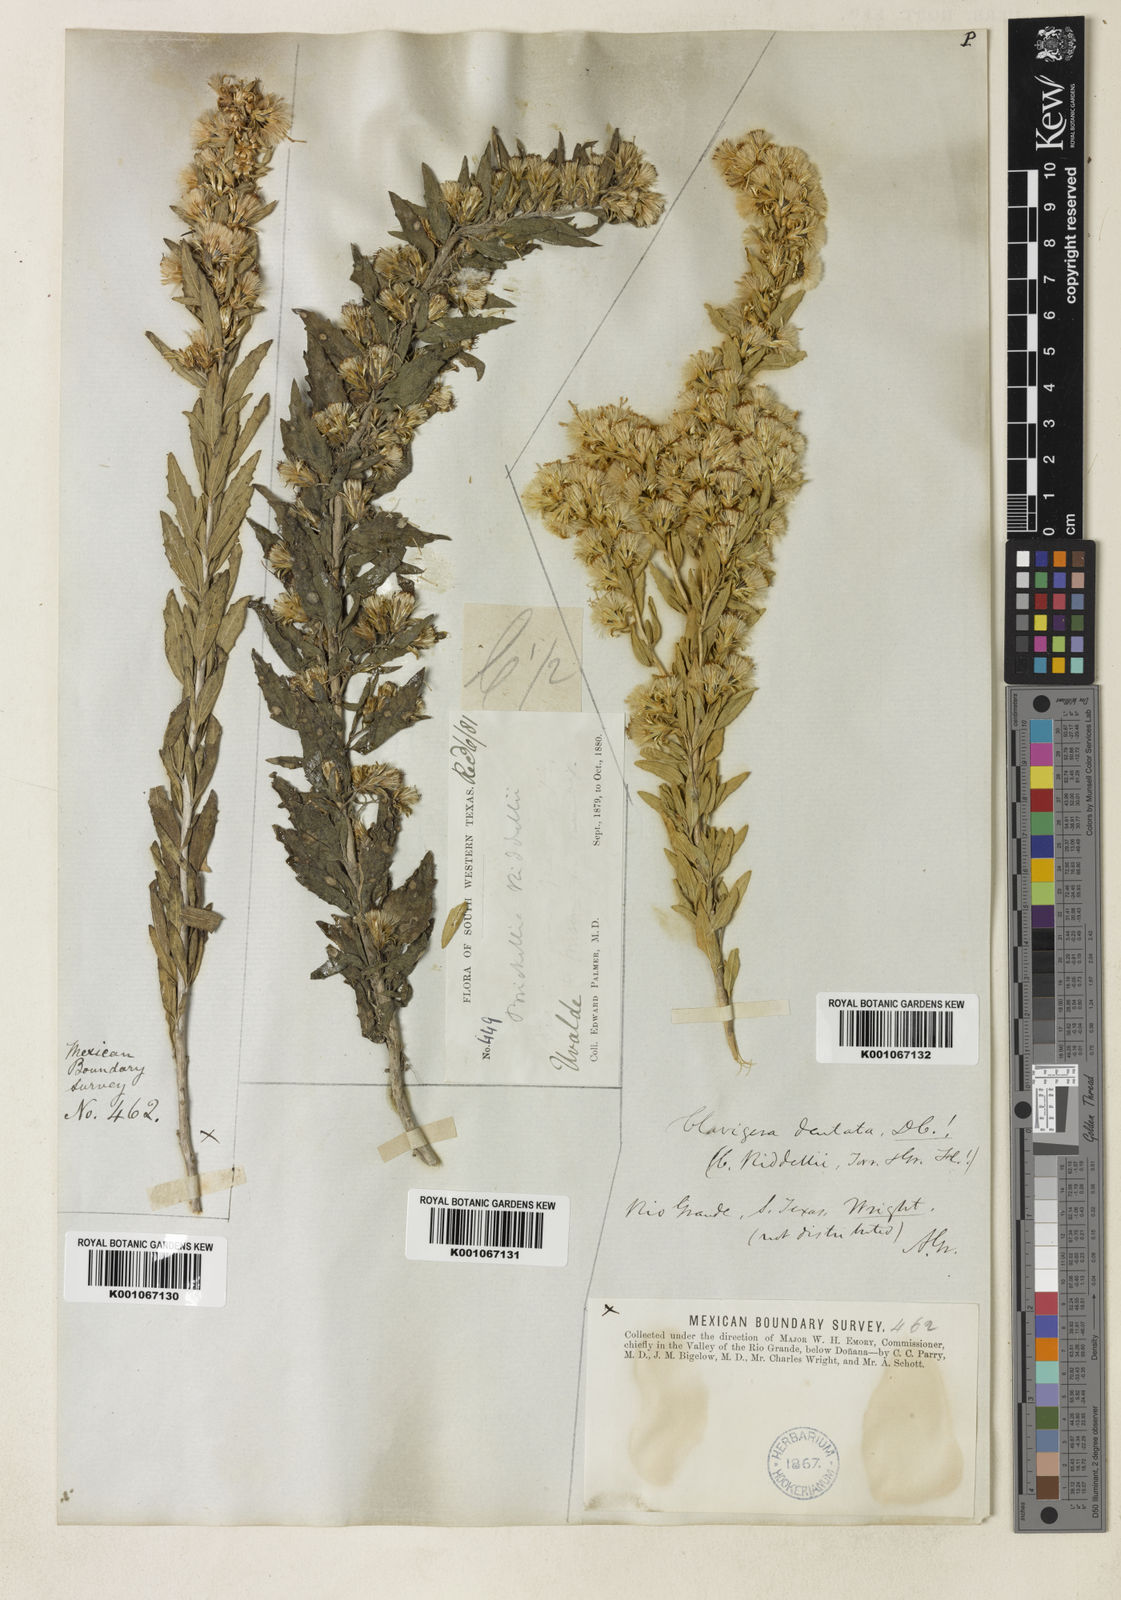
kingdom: Plantae
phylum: Tracheophyta
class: Magnoliopsida
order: Asterales
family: Asteraceae
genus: Brickellia
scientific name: Brickellia dentata
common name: Leafy brickellbush
